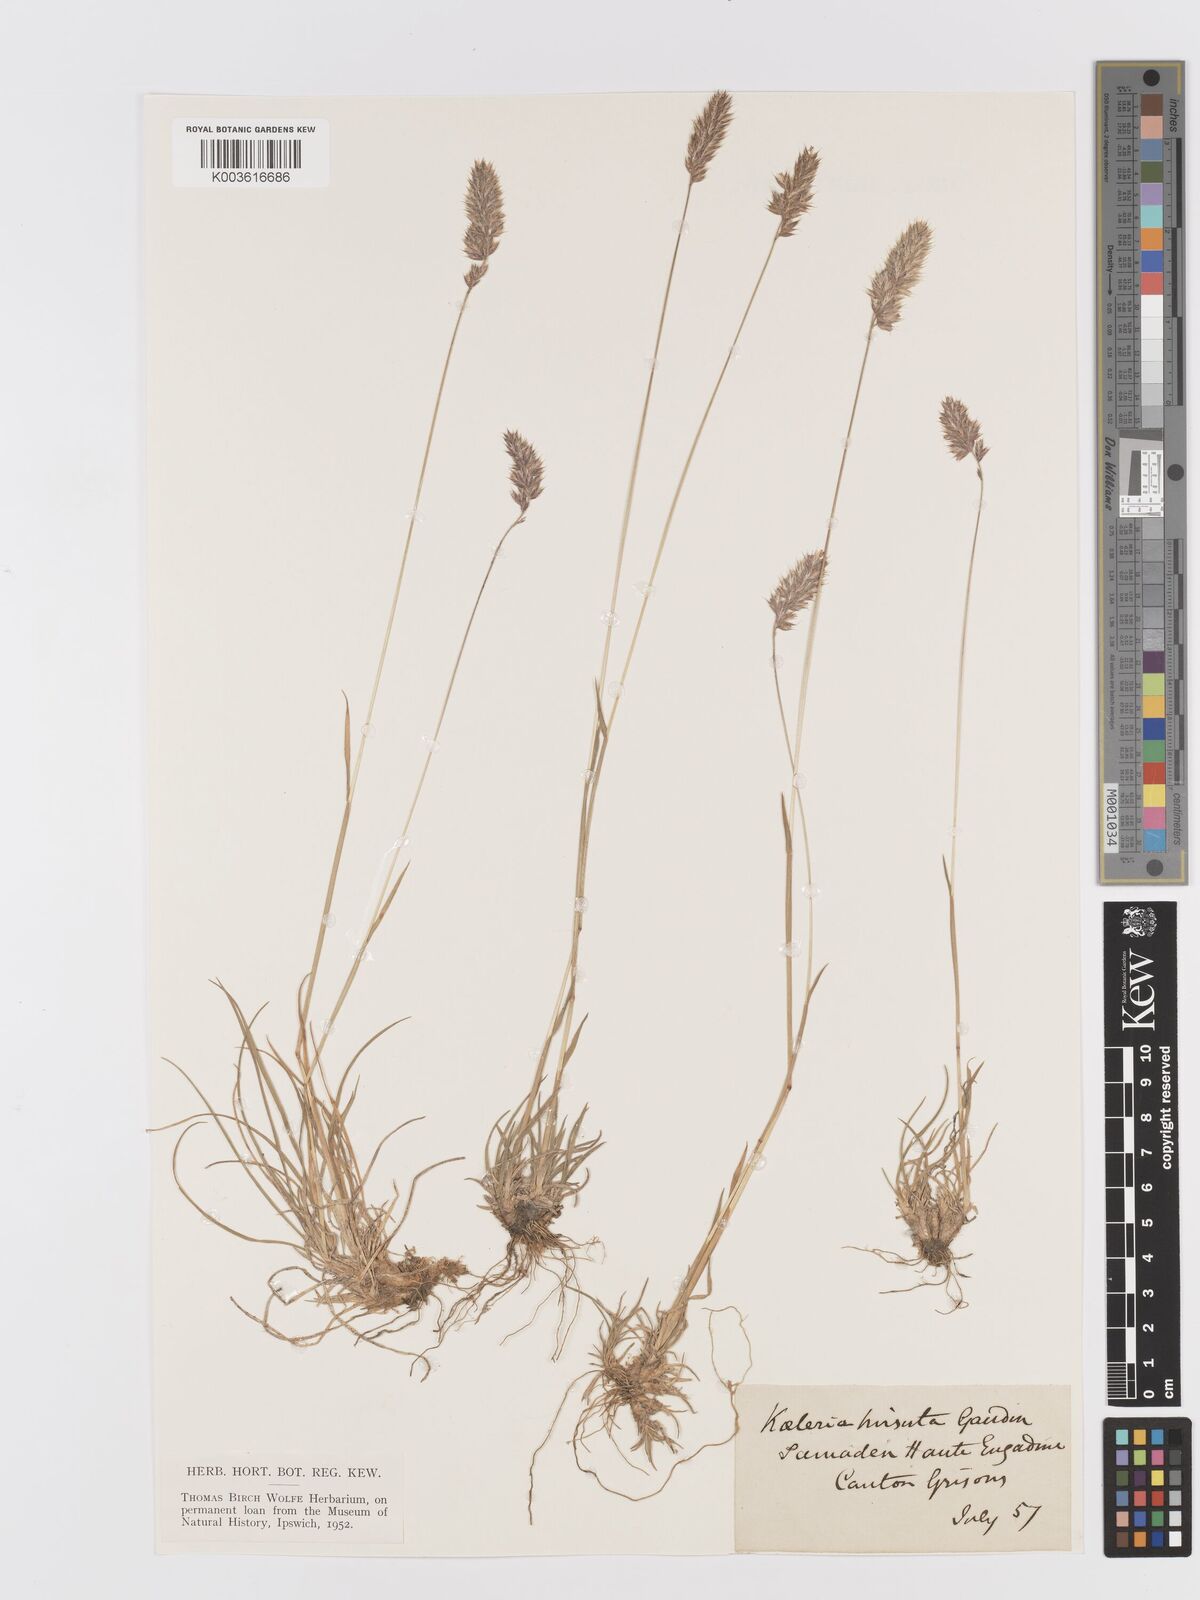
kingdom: Plantae
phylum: Tracheophyta
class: Liliopsida
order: Poales
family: Poaceae
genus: Koeleria
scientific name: Koeleria hirsuta
